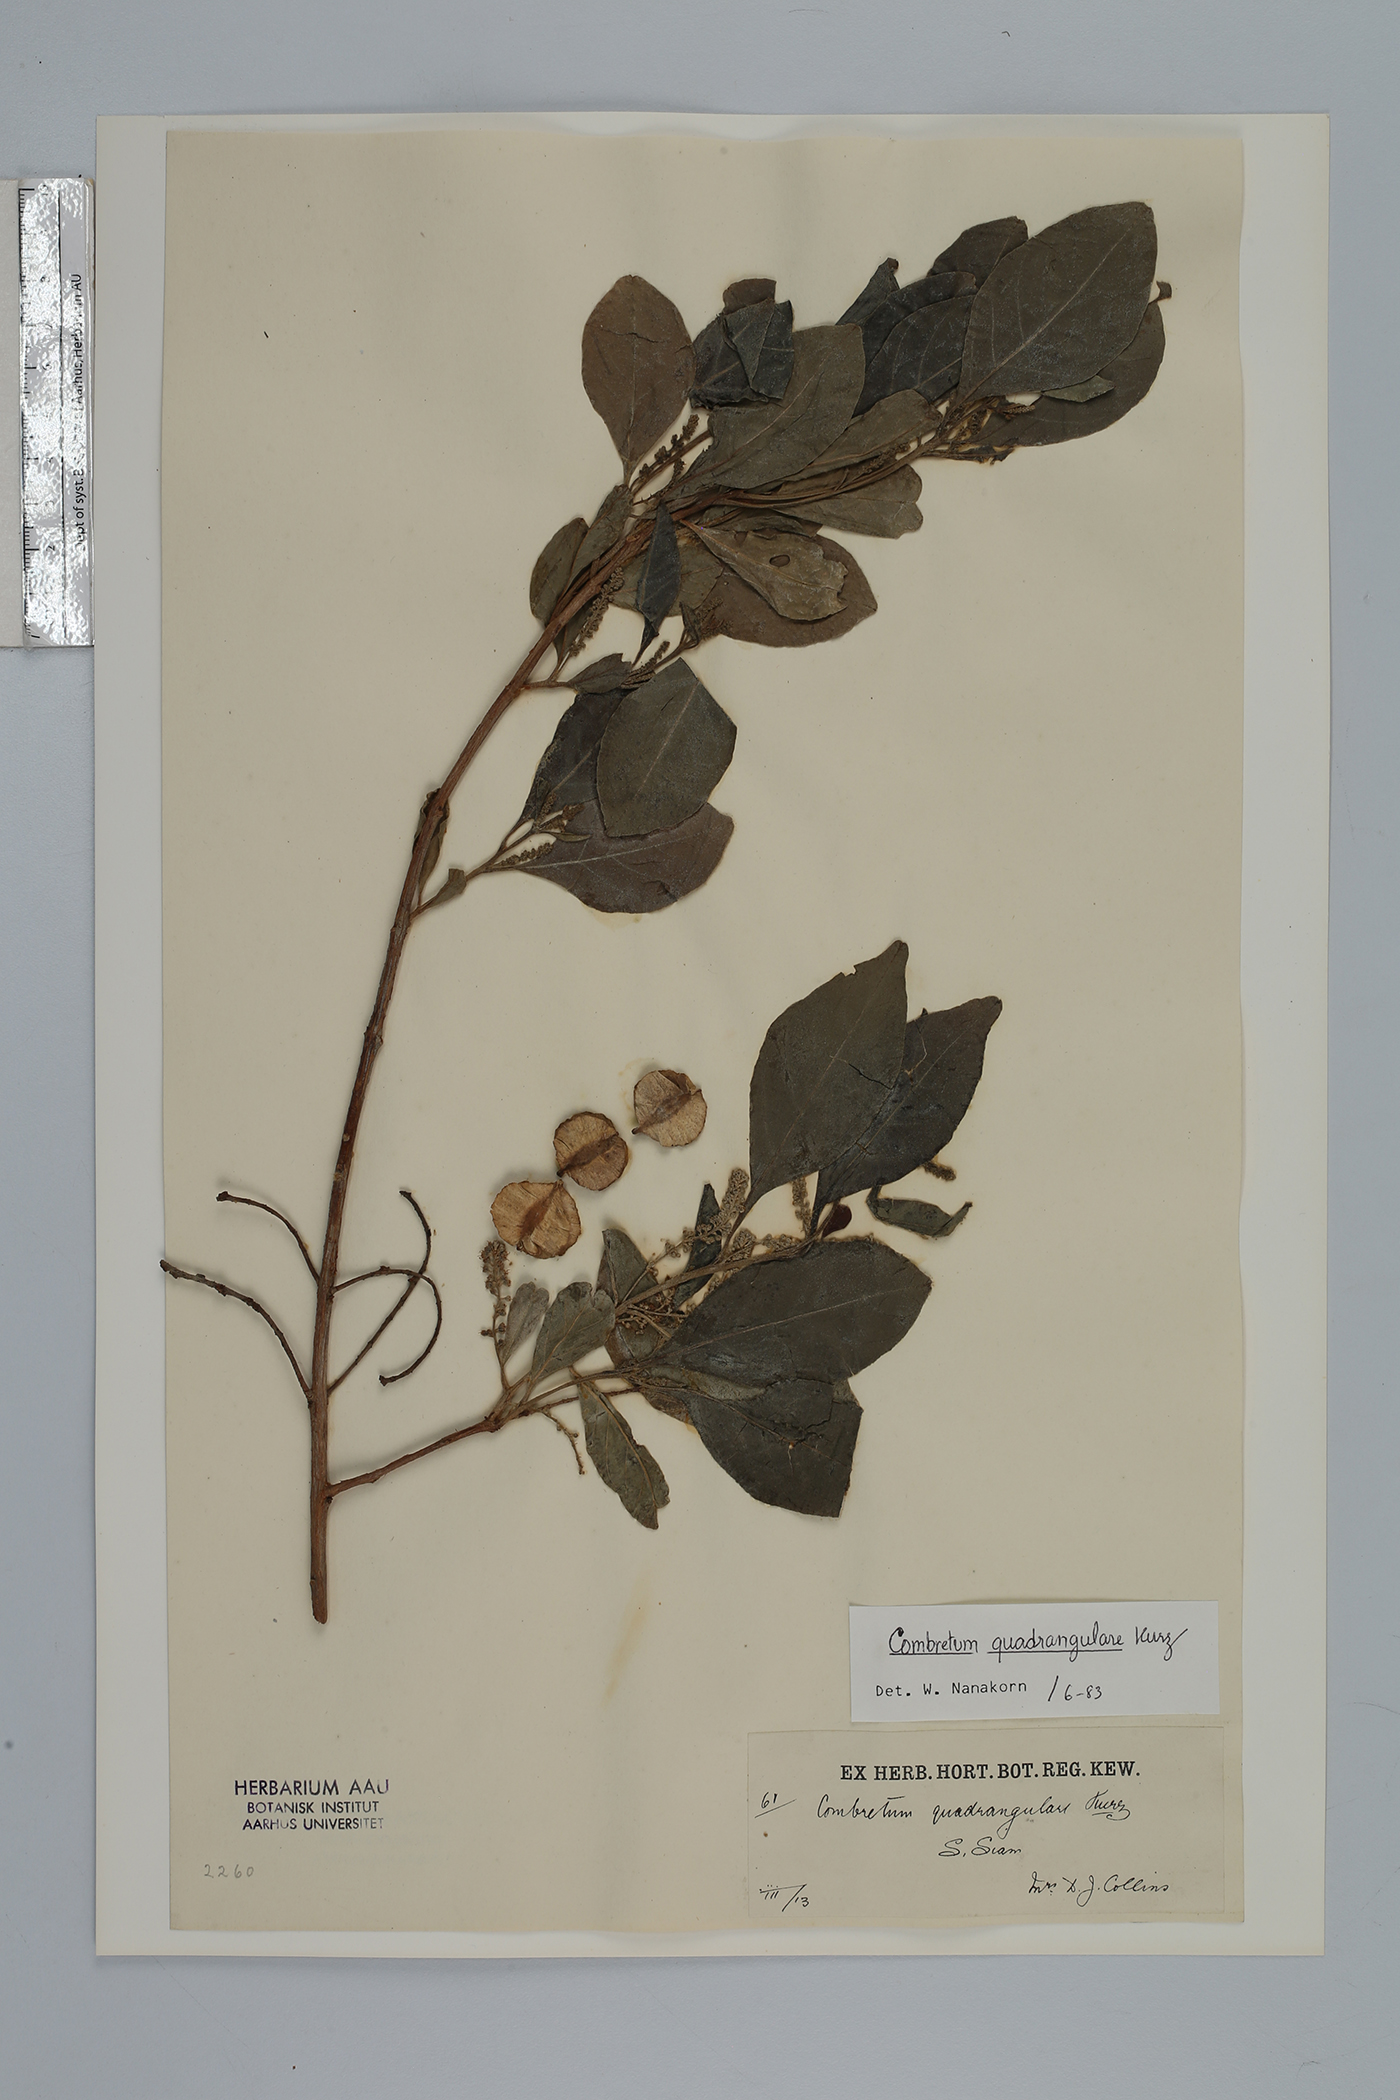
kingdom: Plantae
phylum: Tracheophyta
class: Magnoliopsida
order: Myrtales
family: Combretaceae
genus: Combretum
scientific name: Combretum quadrangulare
